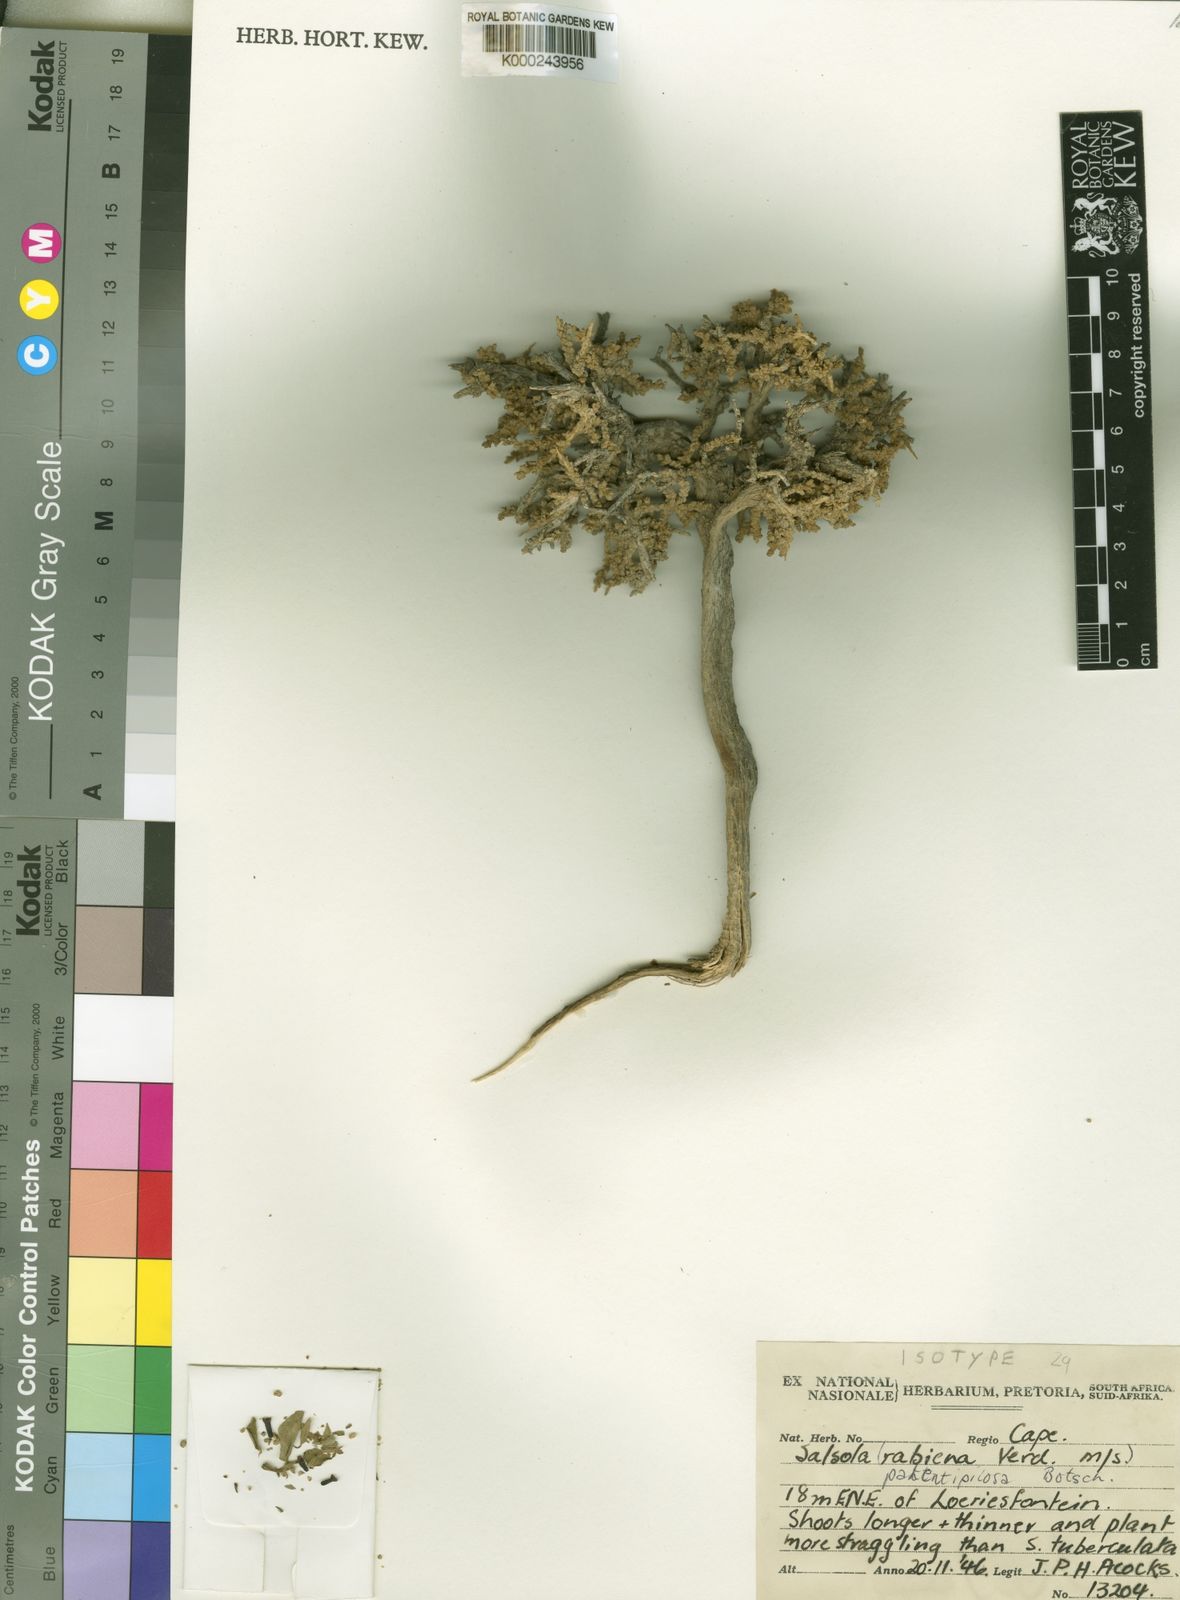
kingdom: Plantae
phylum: Tracheophyta
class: Magnoliopsida
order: Caryophyllales
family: Amaranthaceae
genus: Caroxylon
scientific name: Caroxylon rabieanum
